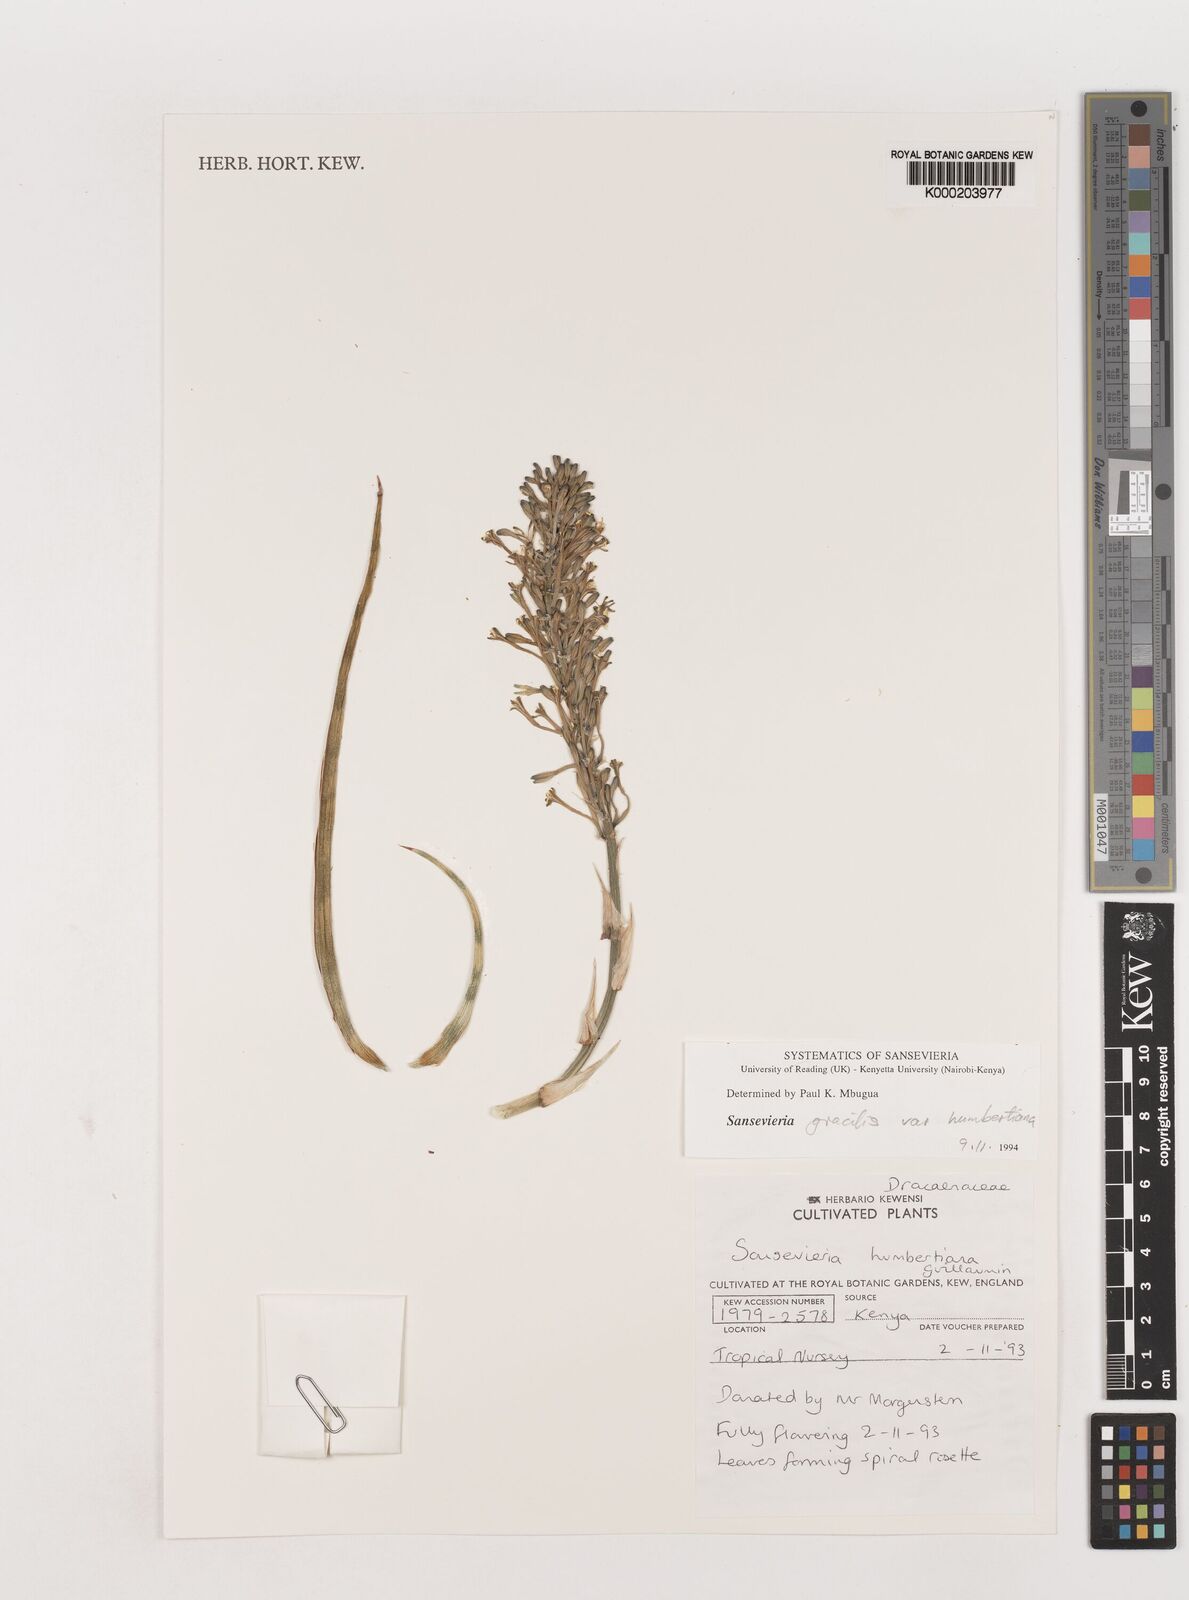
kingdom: Plantae
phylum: Tracheophyta
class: Liliopsida
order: Asparagales
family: Asparagaceae
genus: Dracaena
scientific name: Dracaena serpenta
